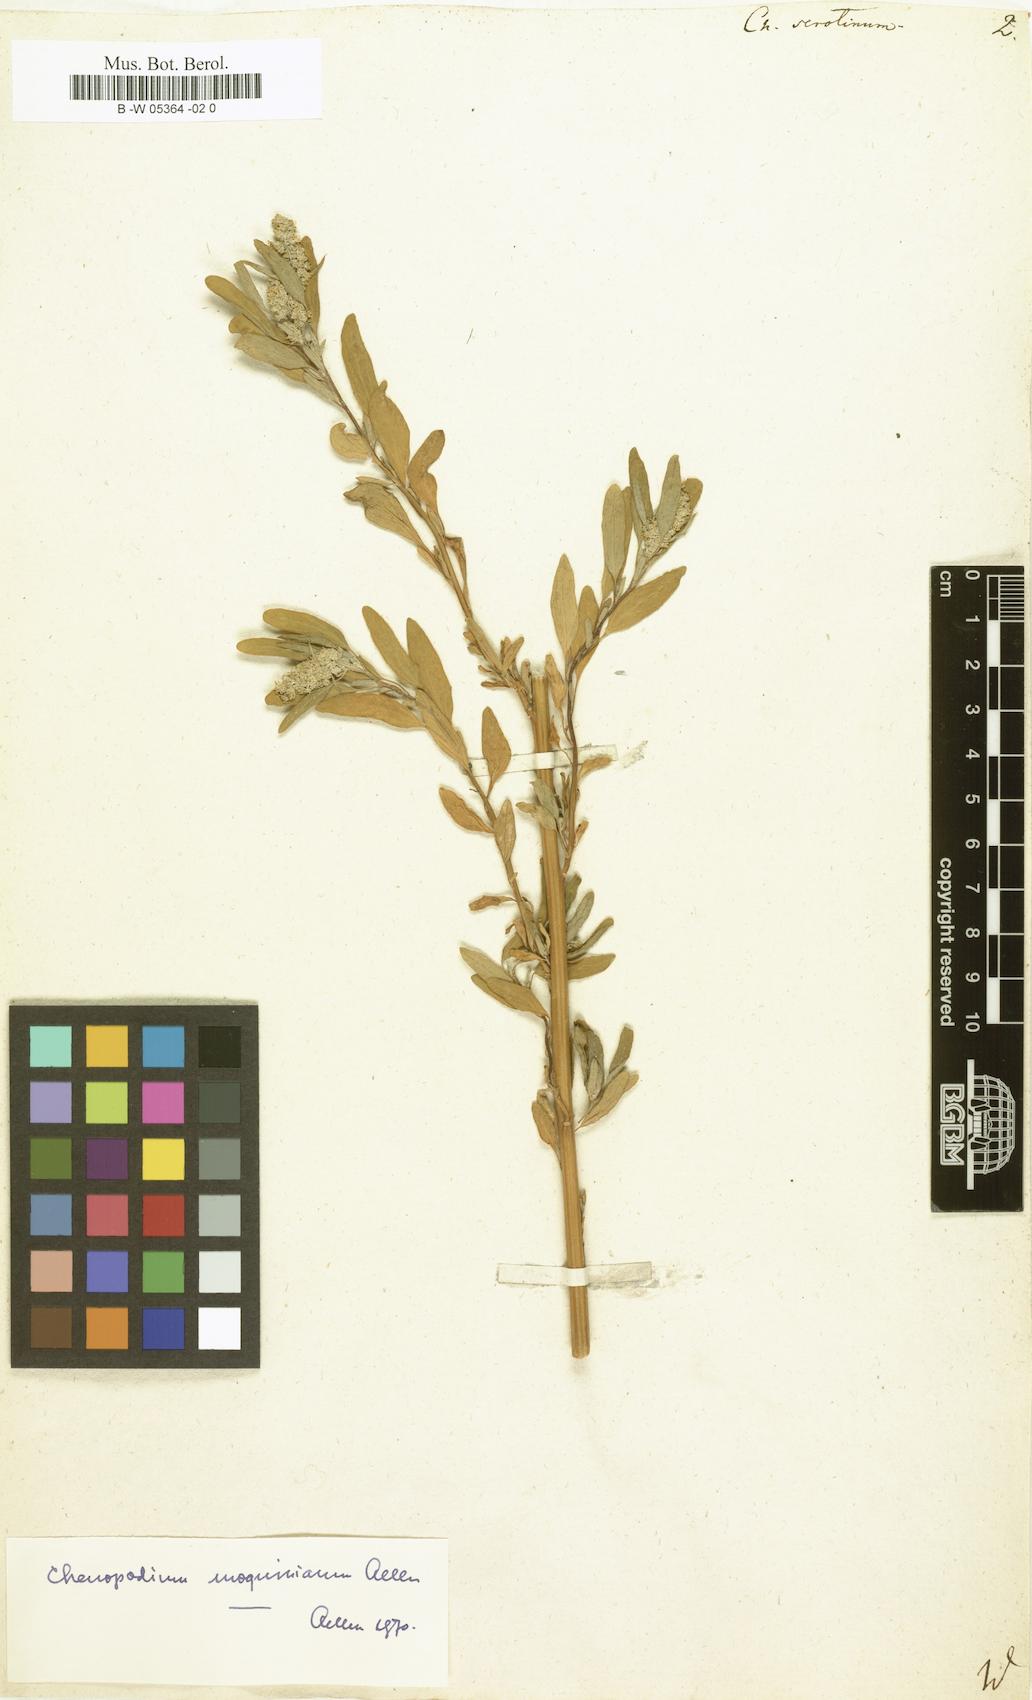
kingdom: Plantae
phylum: Tracheophyta
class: Magnoliopsida
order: Caryophyllales
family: Amaranthaceae
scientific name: Amaranthaceae
